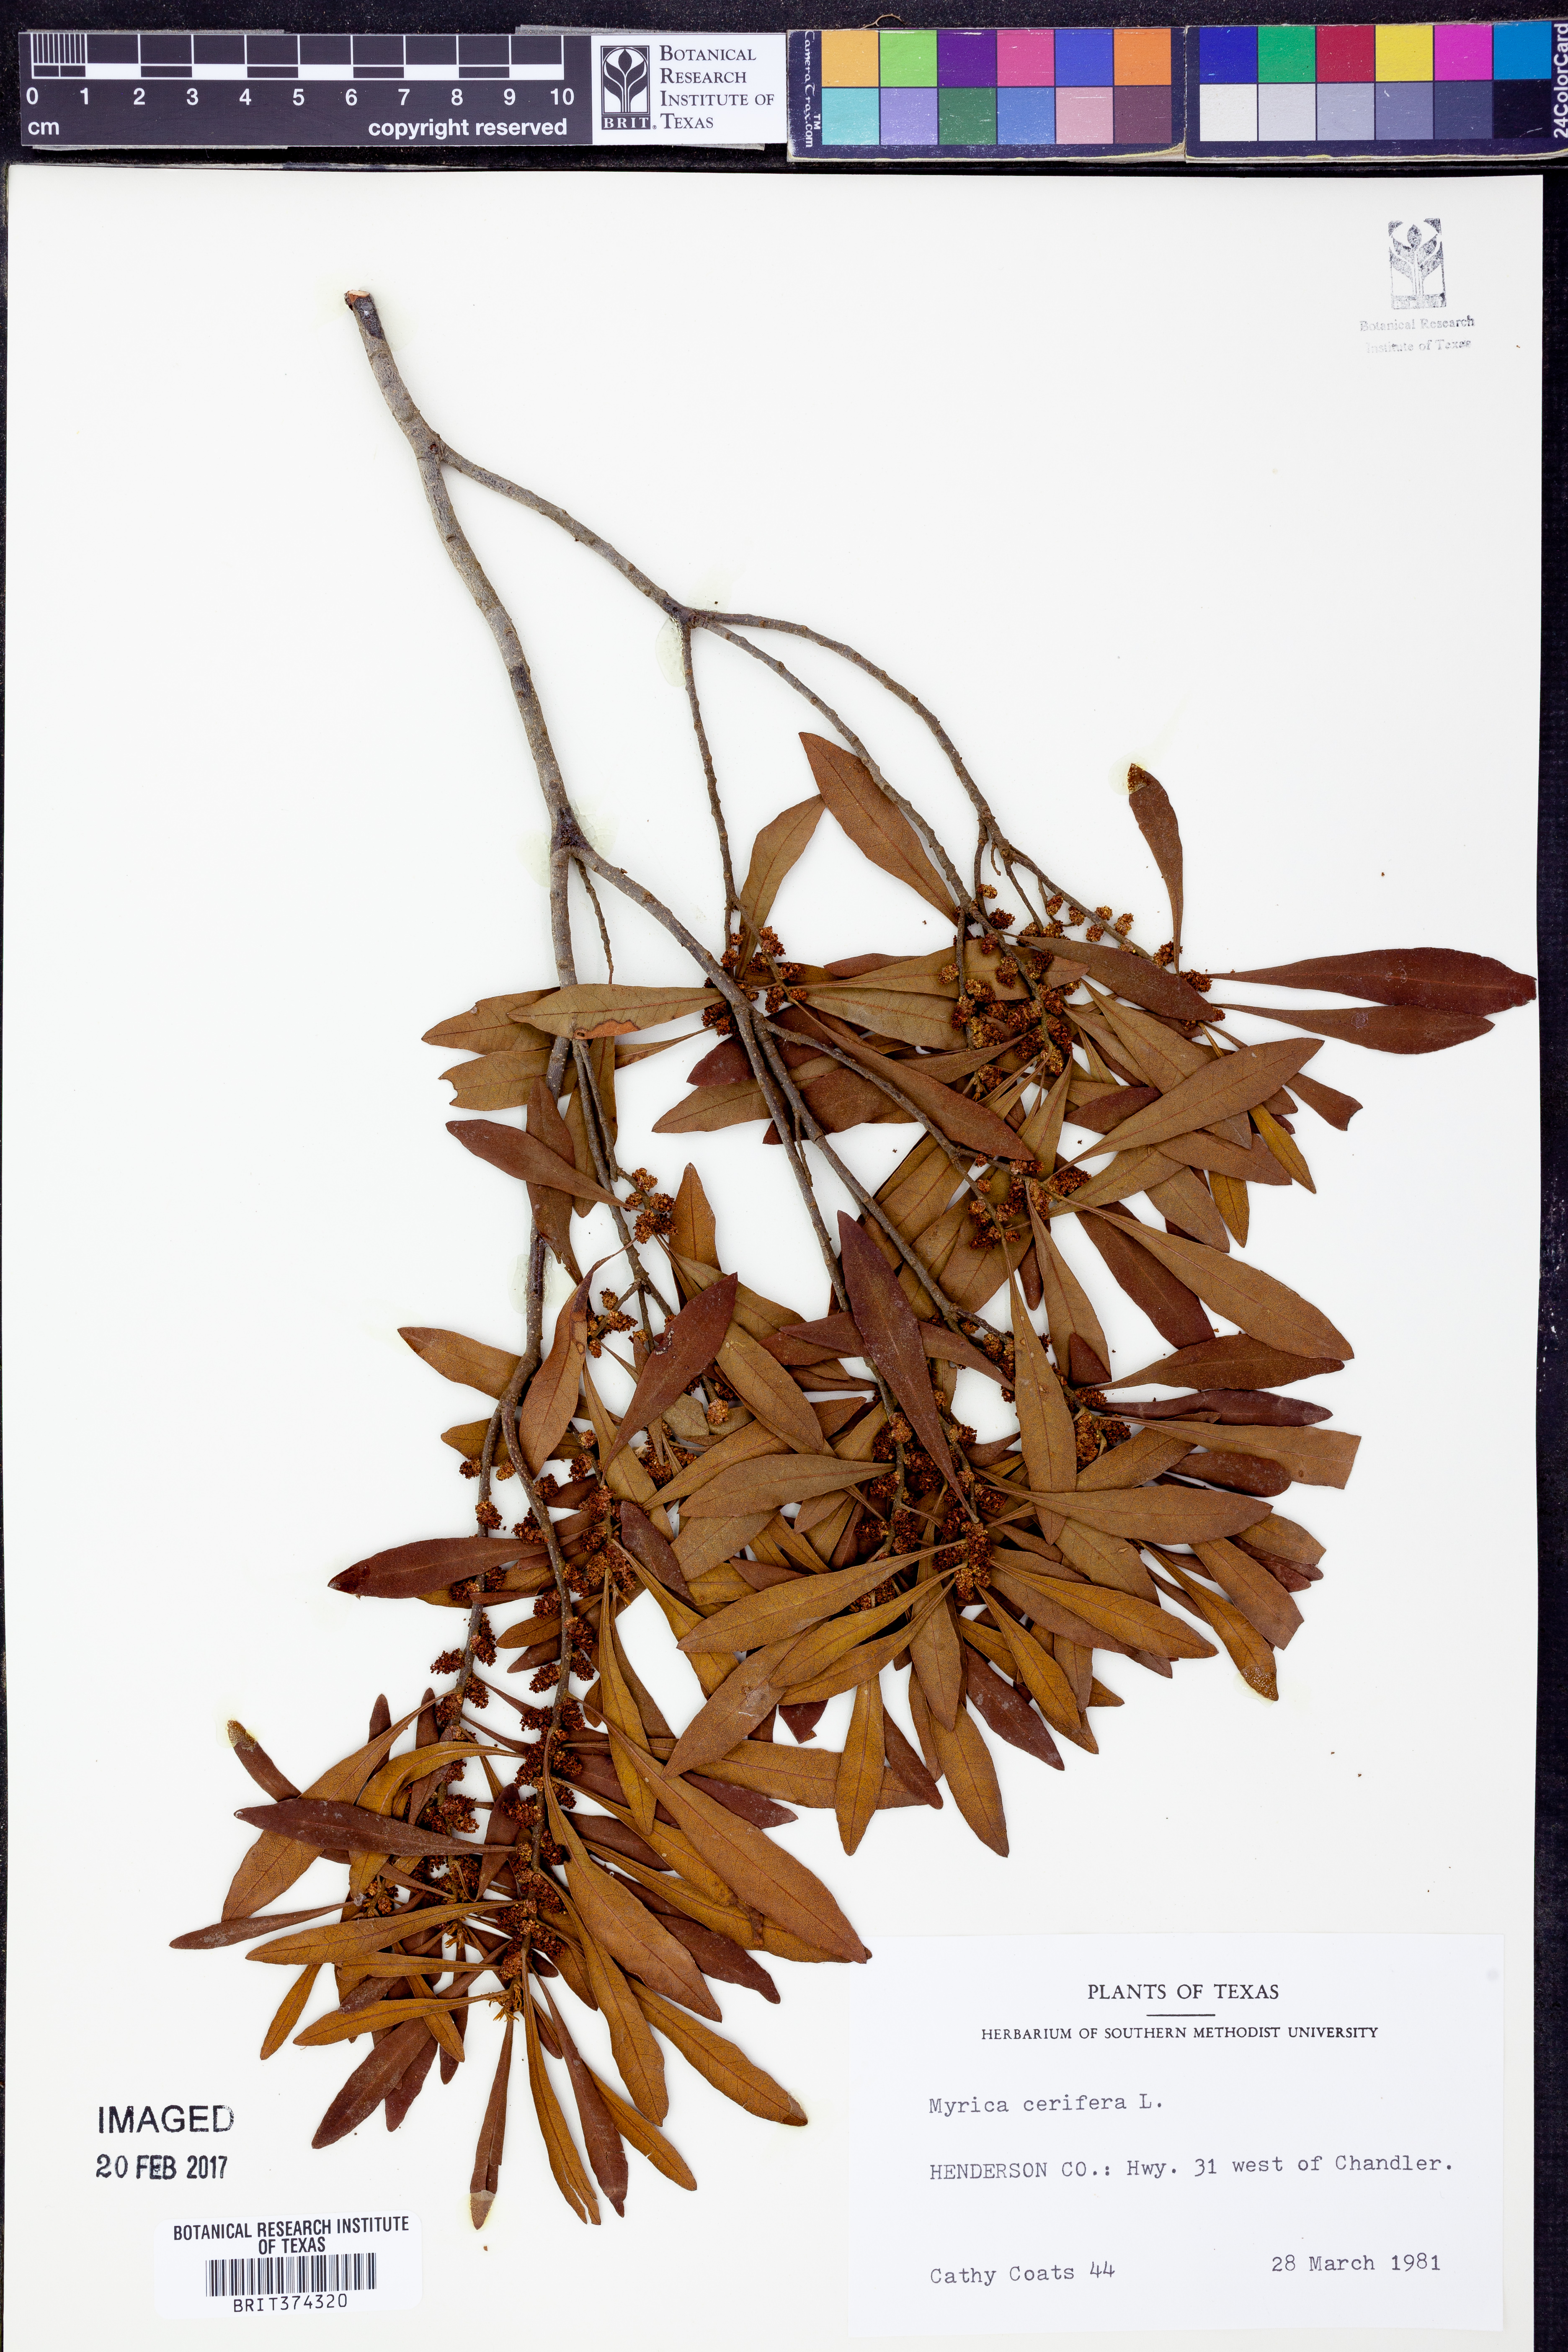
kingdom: Plantae
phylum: Tracheophyta
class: Magnoliopsida
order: Fagales
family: Myricaceae
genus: Morella
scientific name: Morella cerifera
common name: Wax myrtle
